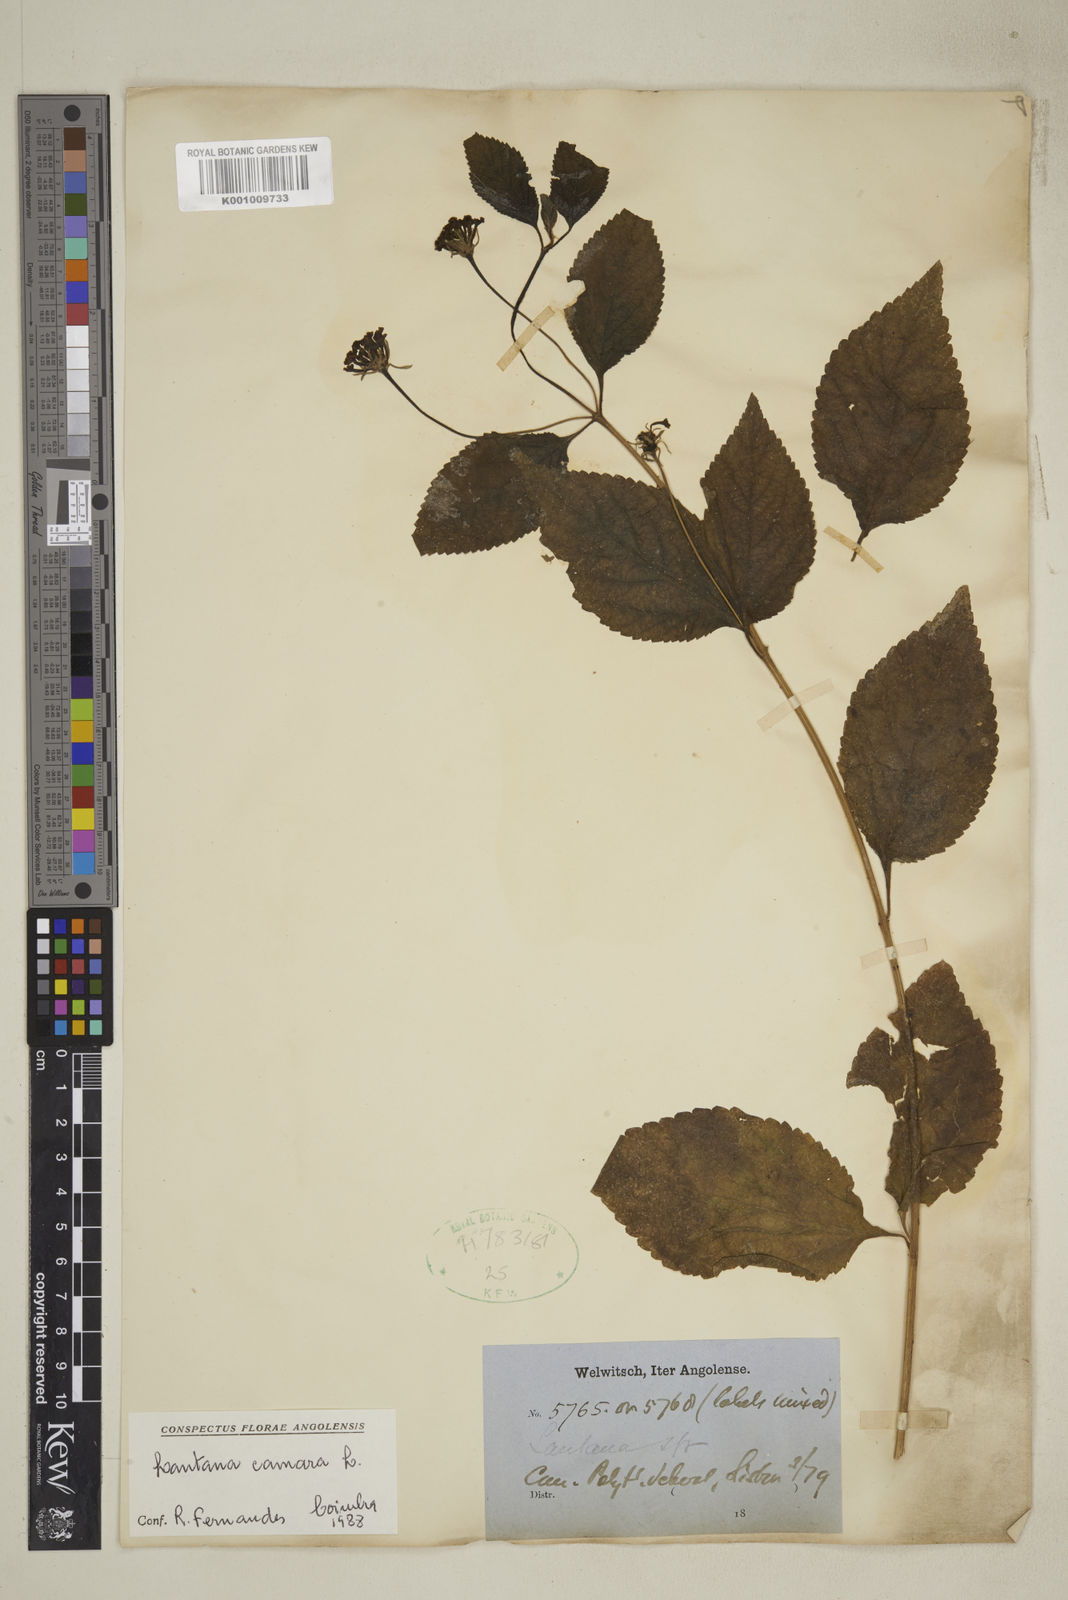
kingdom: Plantae
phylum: Tracheophyta
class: Magnoliopsida
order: Lamiales
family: Verbenaceae
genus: Lantana
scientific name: Lantana camara
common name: Lantana
